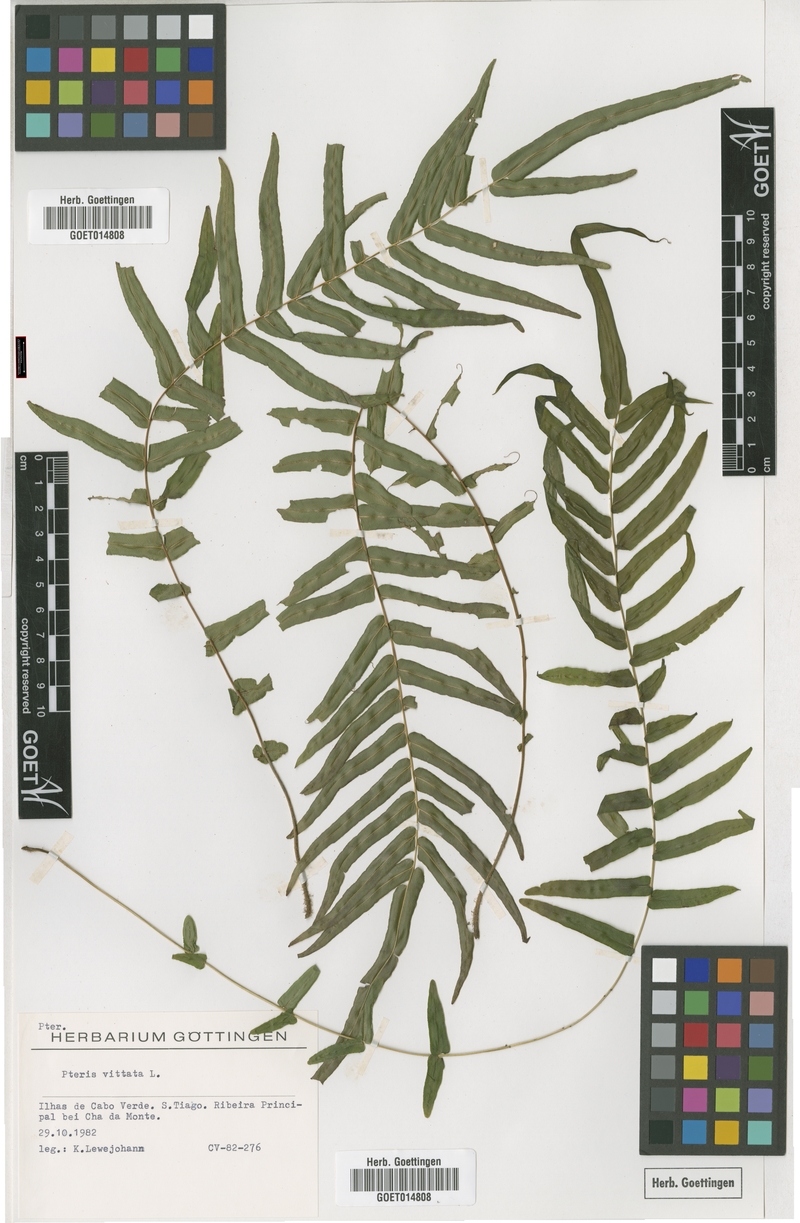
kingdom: Plantae
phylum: Tracheophyta
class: Polypodiopsida
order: Polypodiales
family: Pteridaceae
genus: Pteris
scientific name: Pteris vittata
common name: Ladder brake
